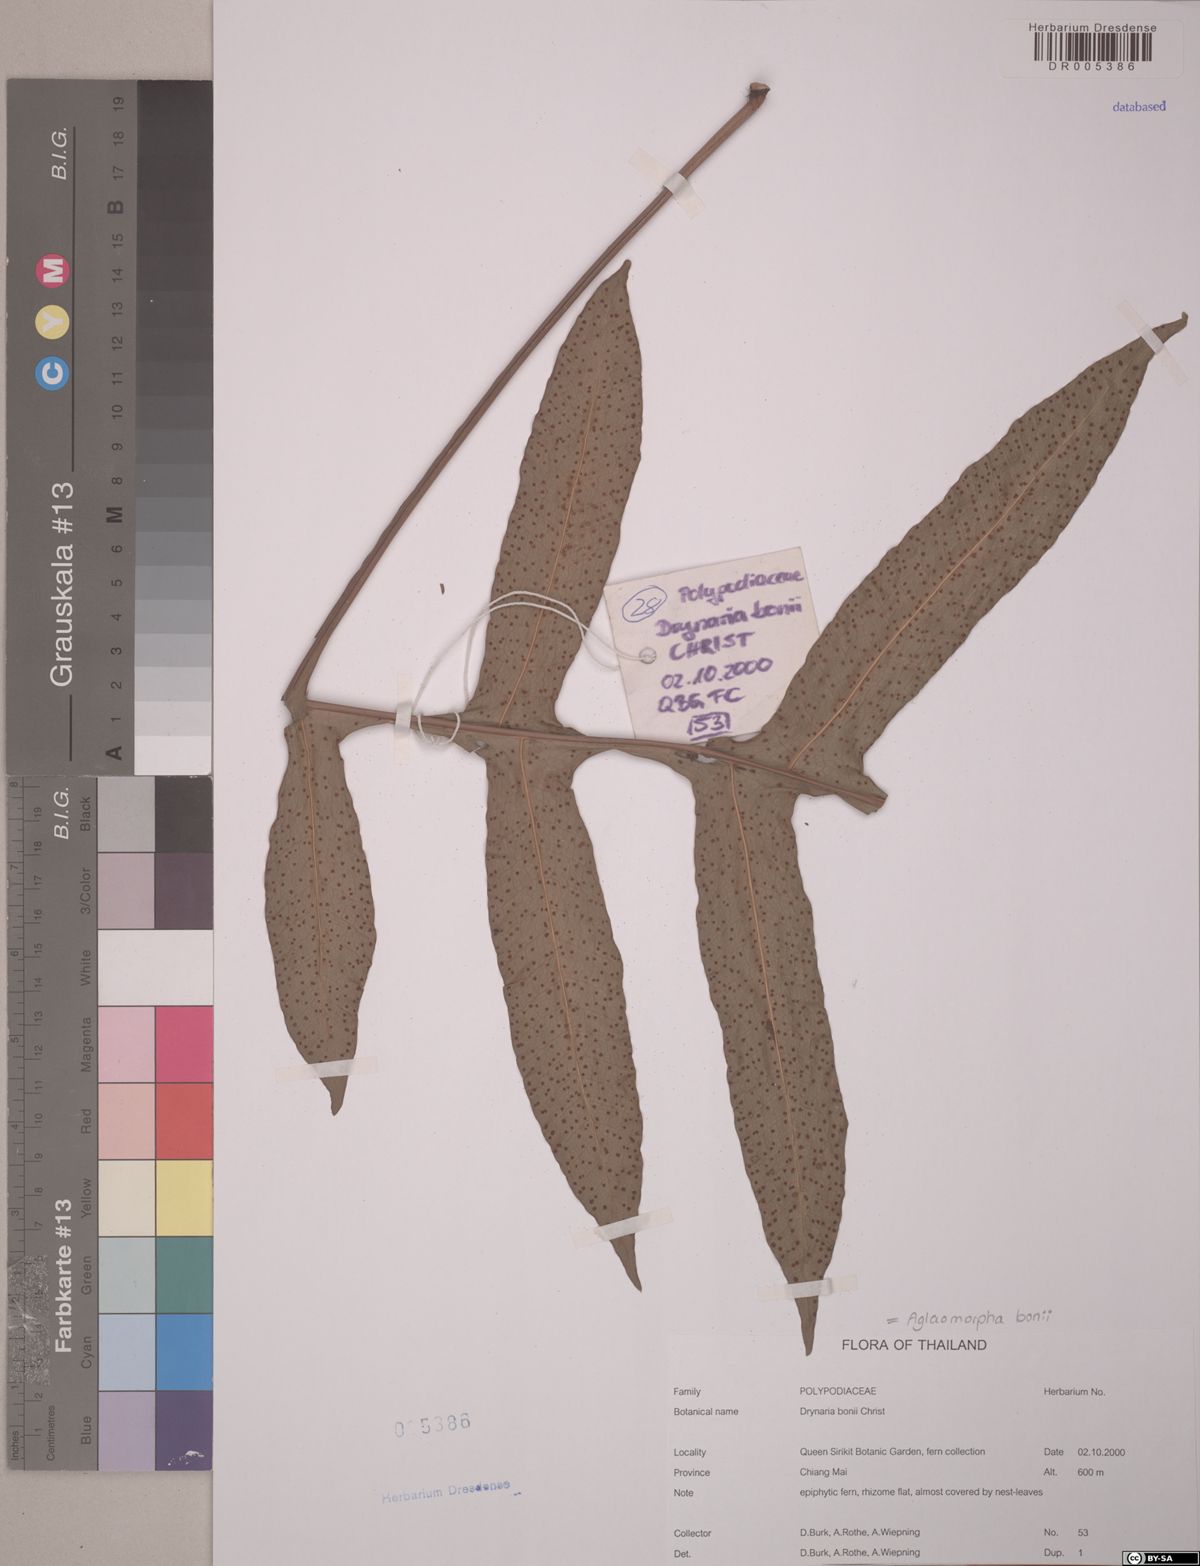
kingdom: Plantae
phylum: Tracheophyta
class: Polypodiopsida
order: Polypodiales
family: Polypodiaceae
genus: Drynaria
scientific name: Drynaria bonii
